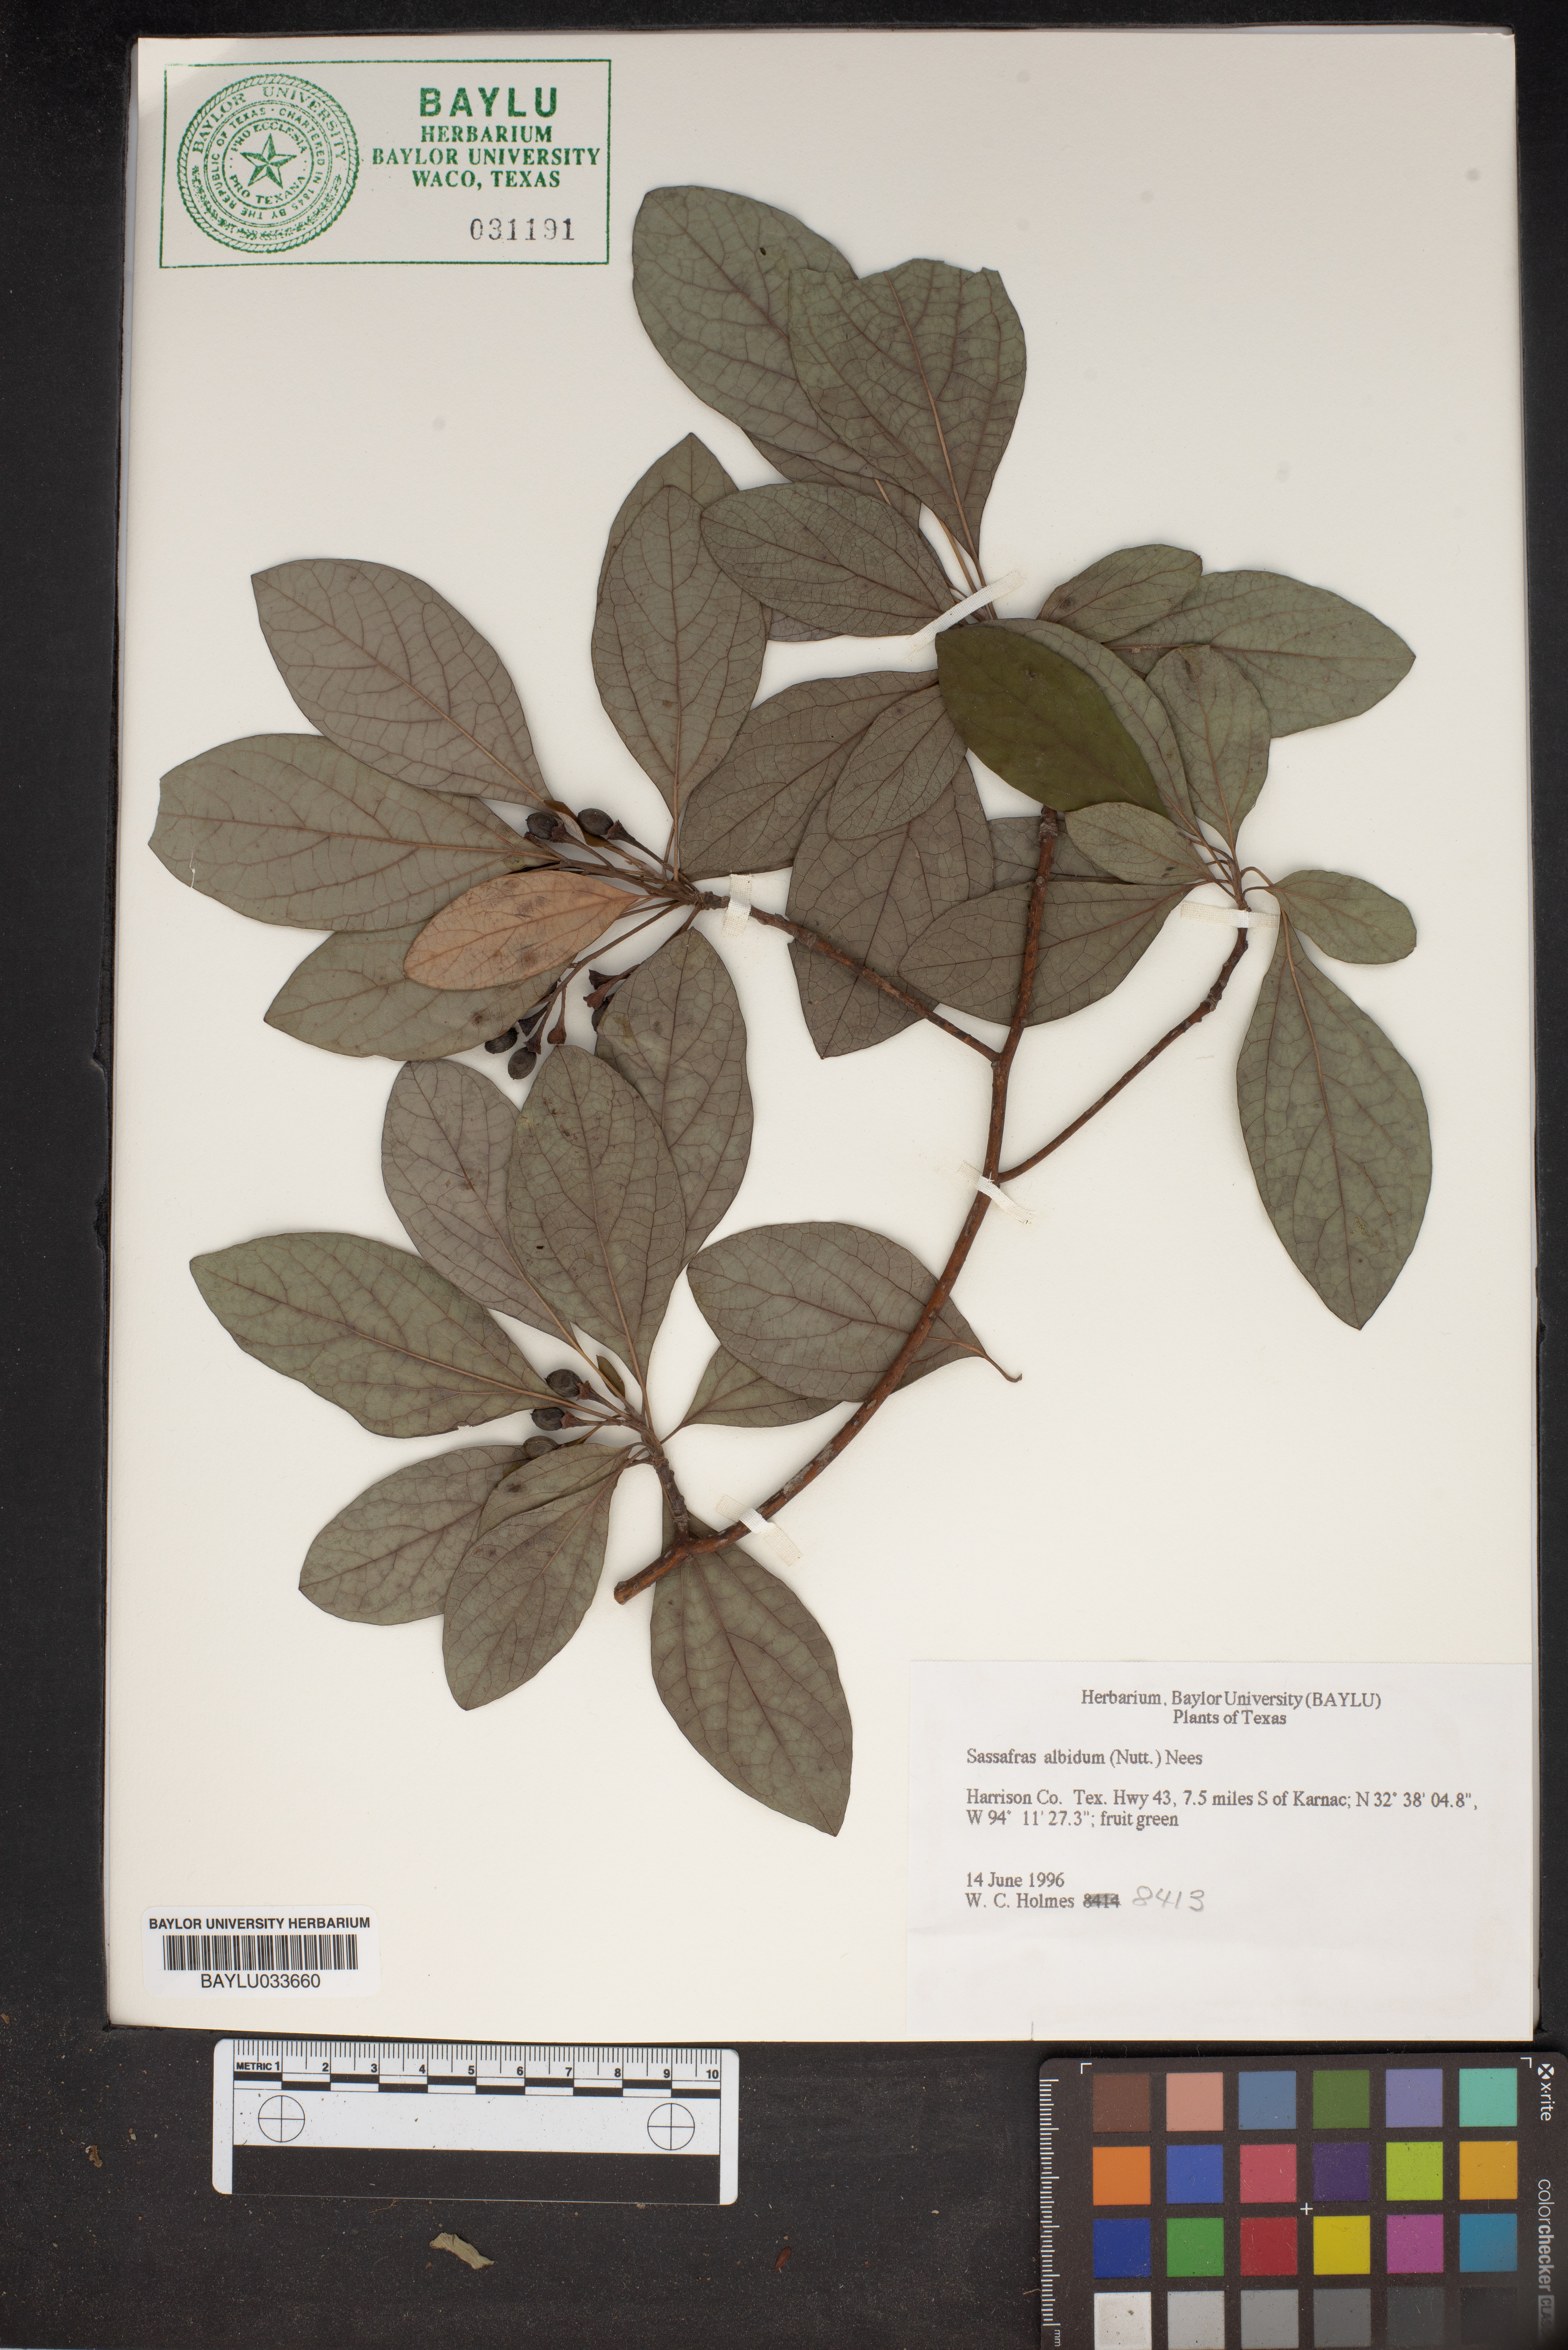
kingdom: Plantae
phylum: Tracheophyta
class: Magnoliopsida
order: Laurales
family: Lauraceae
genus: Sassafras
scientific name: Sassafras albidum
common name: Sassafras
